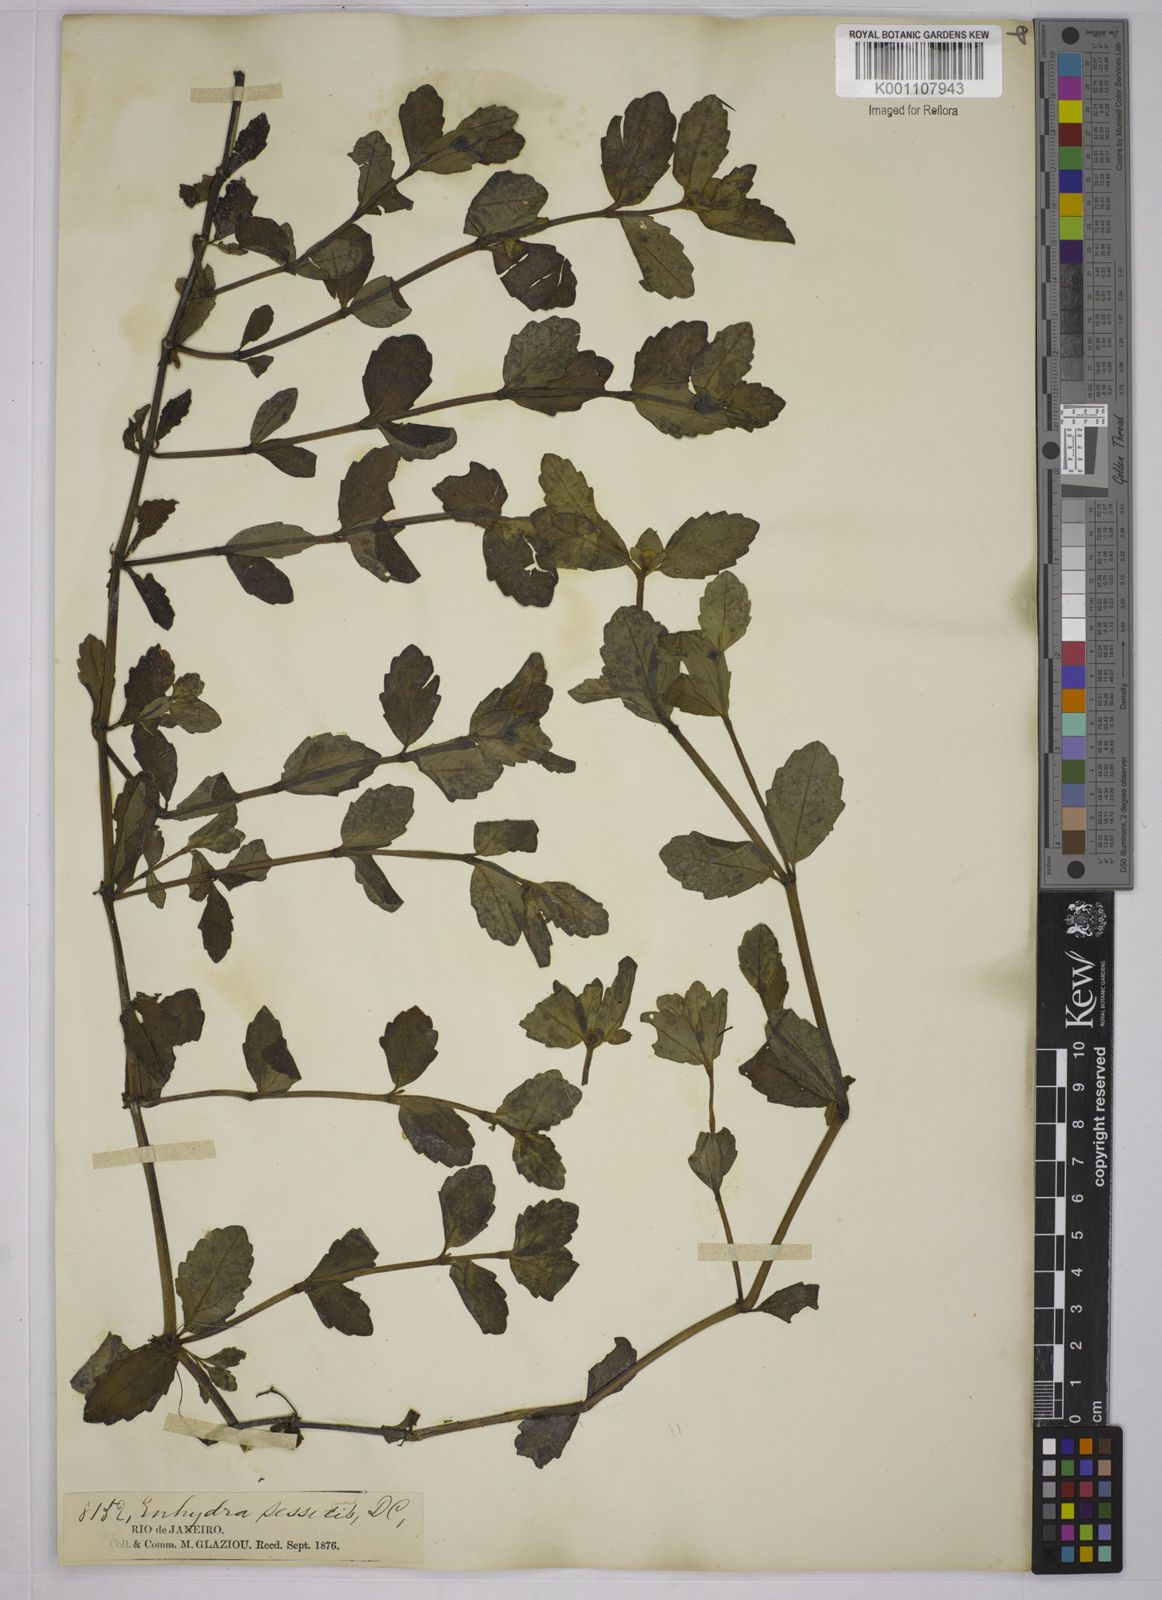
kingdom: Plantae
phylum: Tracheophyta
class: Magnoliopsida
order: Asterales
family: Asteraceae
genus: Enydra
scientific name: Enydra sessilis
